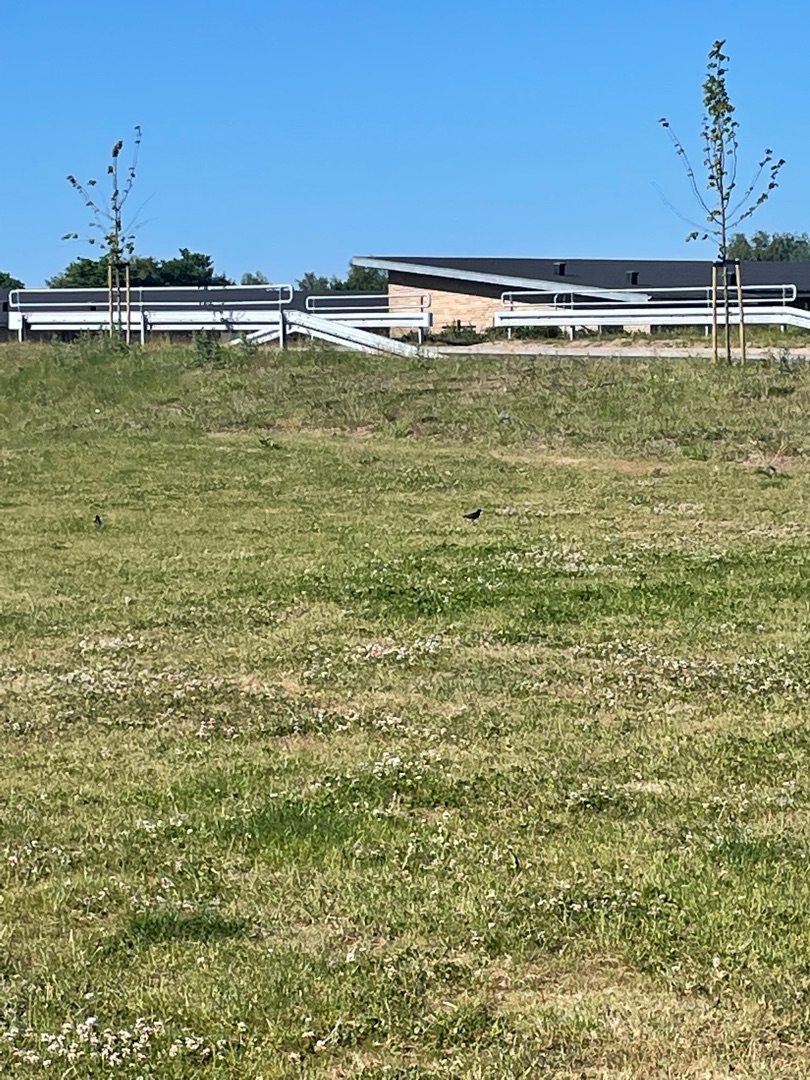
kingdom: Animalia
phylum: Chordata
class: Aves
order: Passeriformes
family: Sturnidae
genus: Sturnus
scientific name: Sturnus vulgaris
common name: Stær
